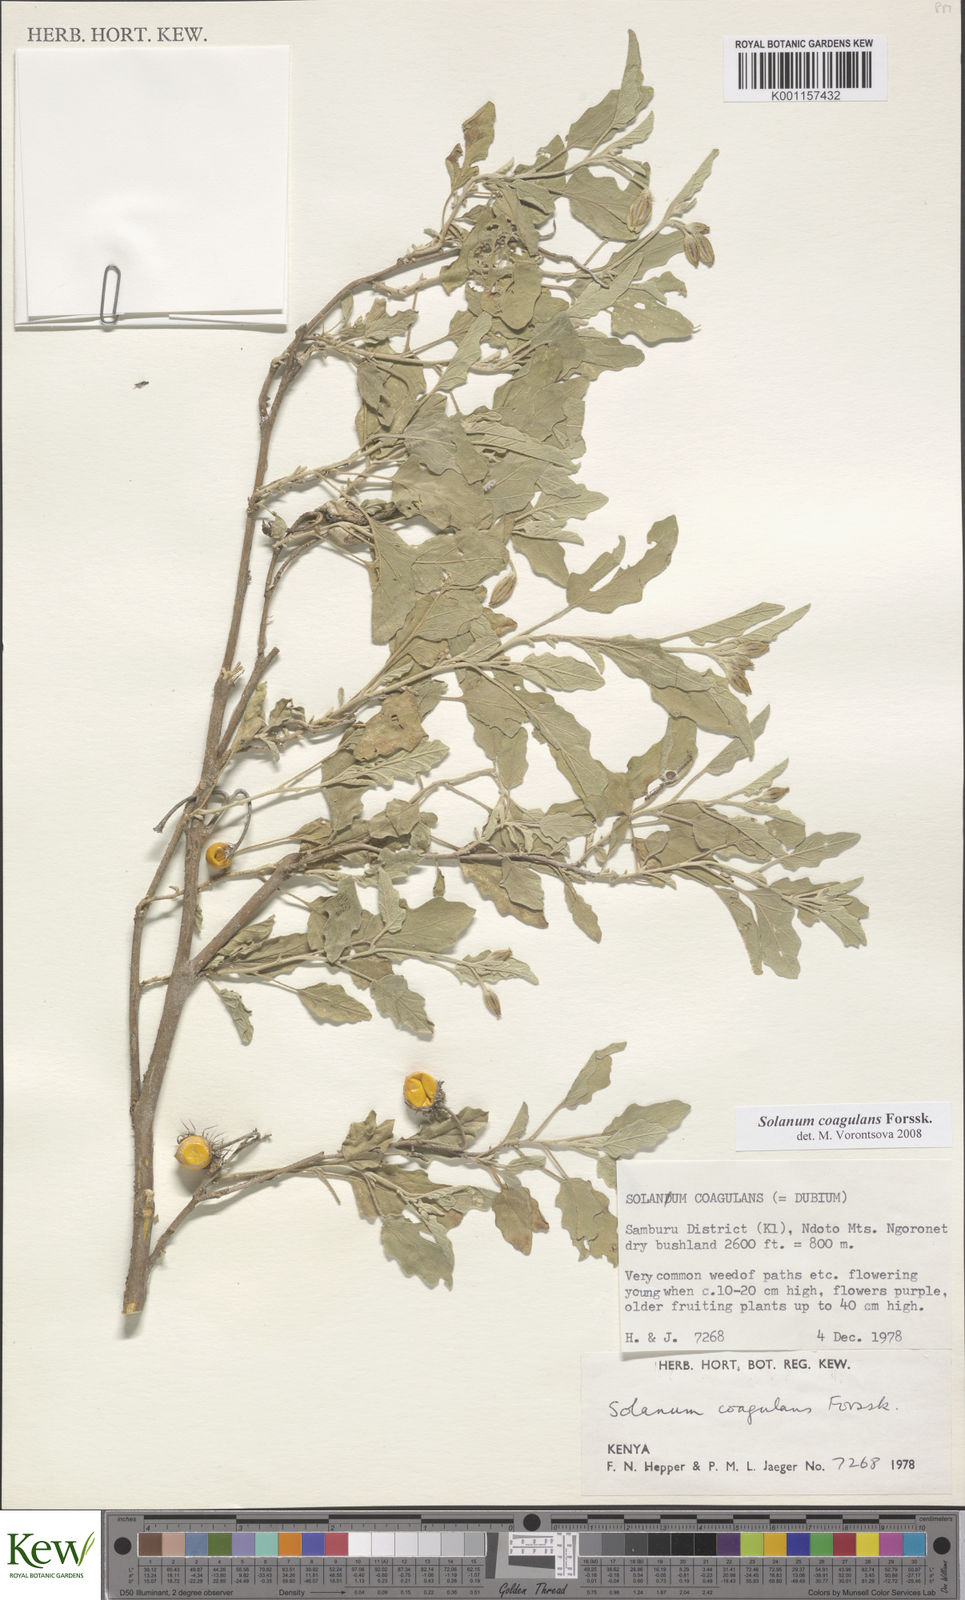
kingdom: Plantae
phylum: Tracheophyta
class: Magnoliopsida
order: Solanales
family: Solanaceae
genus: Solanum
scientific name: Solanum coagulans
